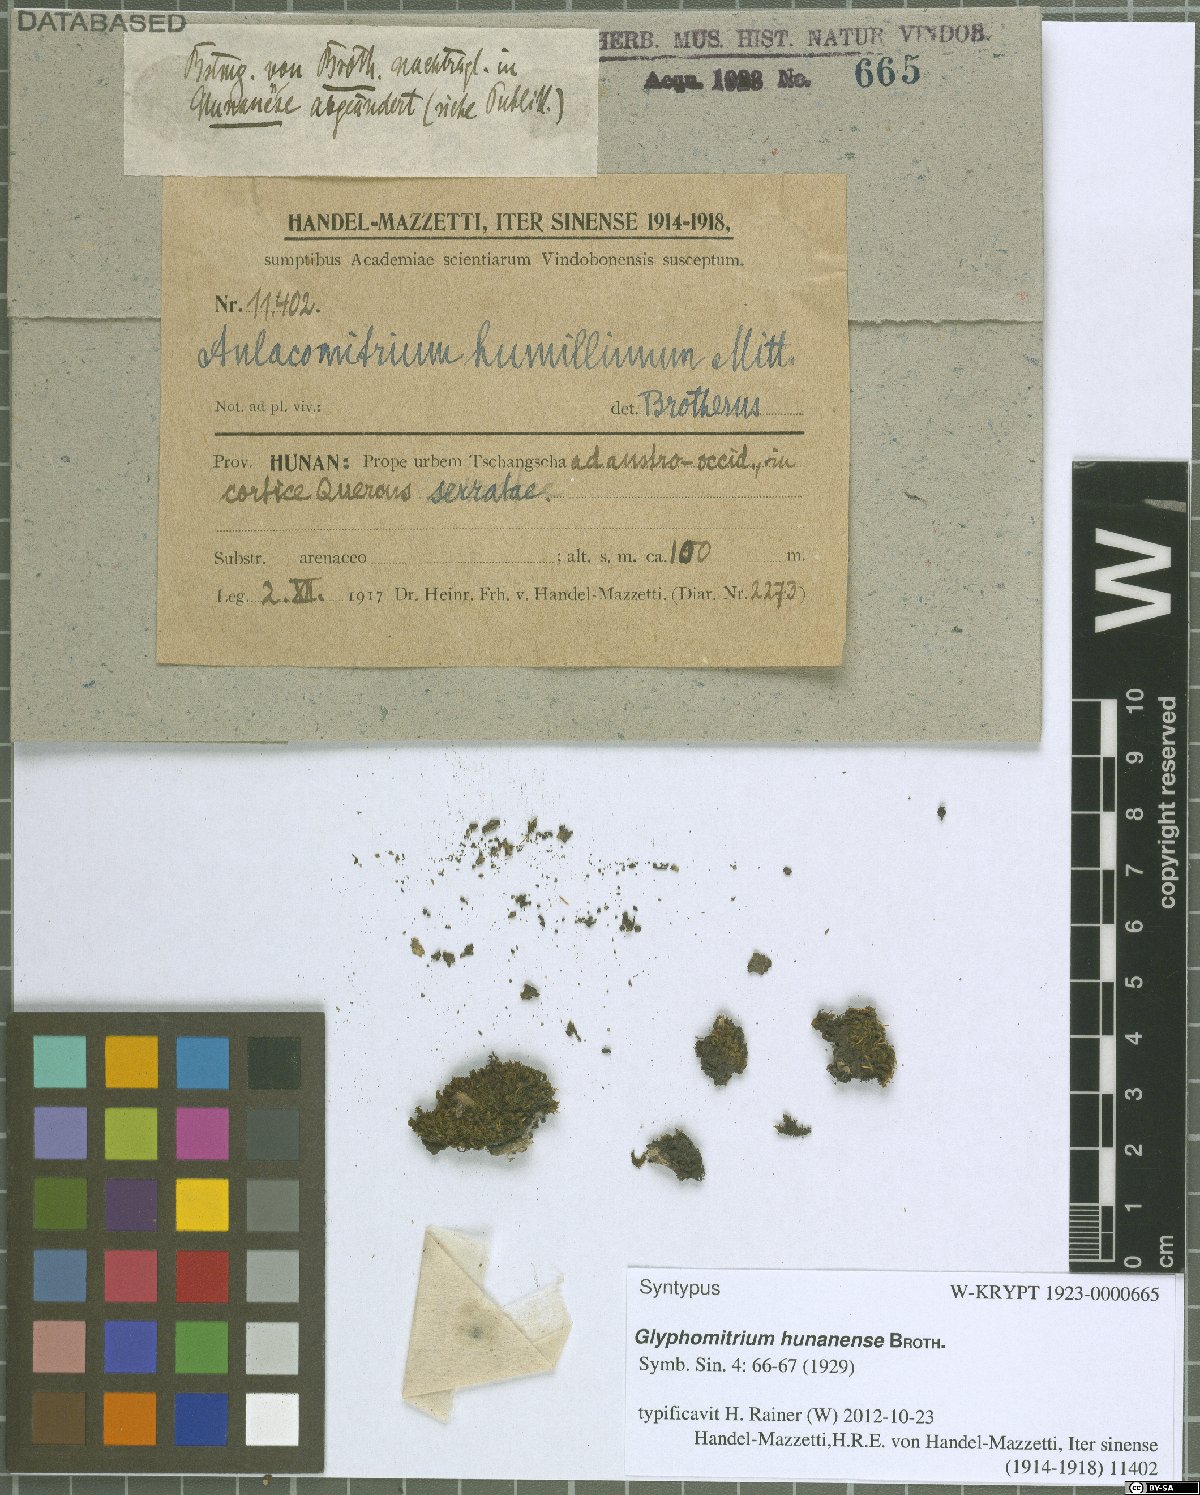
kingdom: Plantae
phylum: Bryophyta
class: Bryopsida
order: Dicranales
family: Rhabdoweisiaceae
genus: Glyphomitrium
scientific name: Glyphomitrium hunanense
